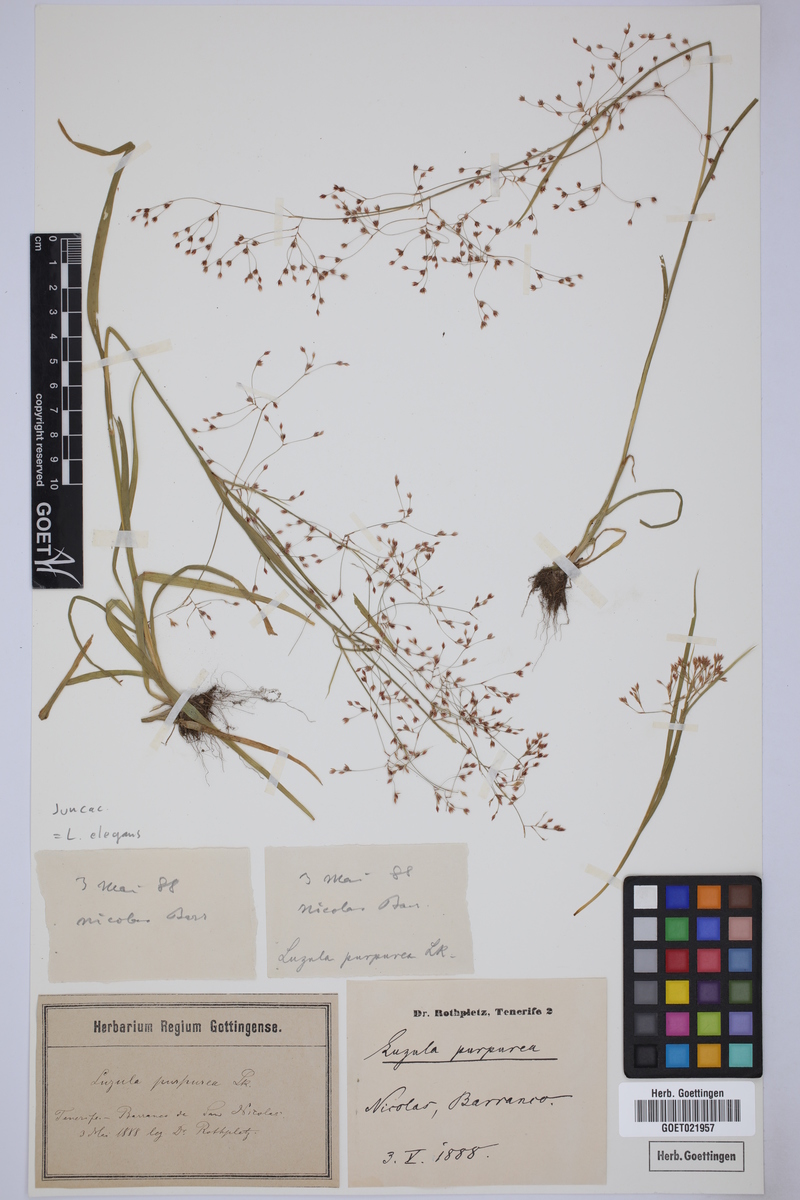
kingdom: Plantae
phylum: Tracheophyta
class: Liliopsida
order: Poales
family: Juncaceae
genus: Luzula
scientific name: Luzula elegans
